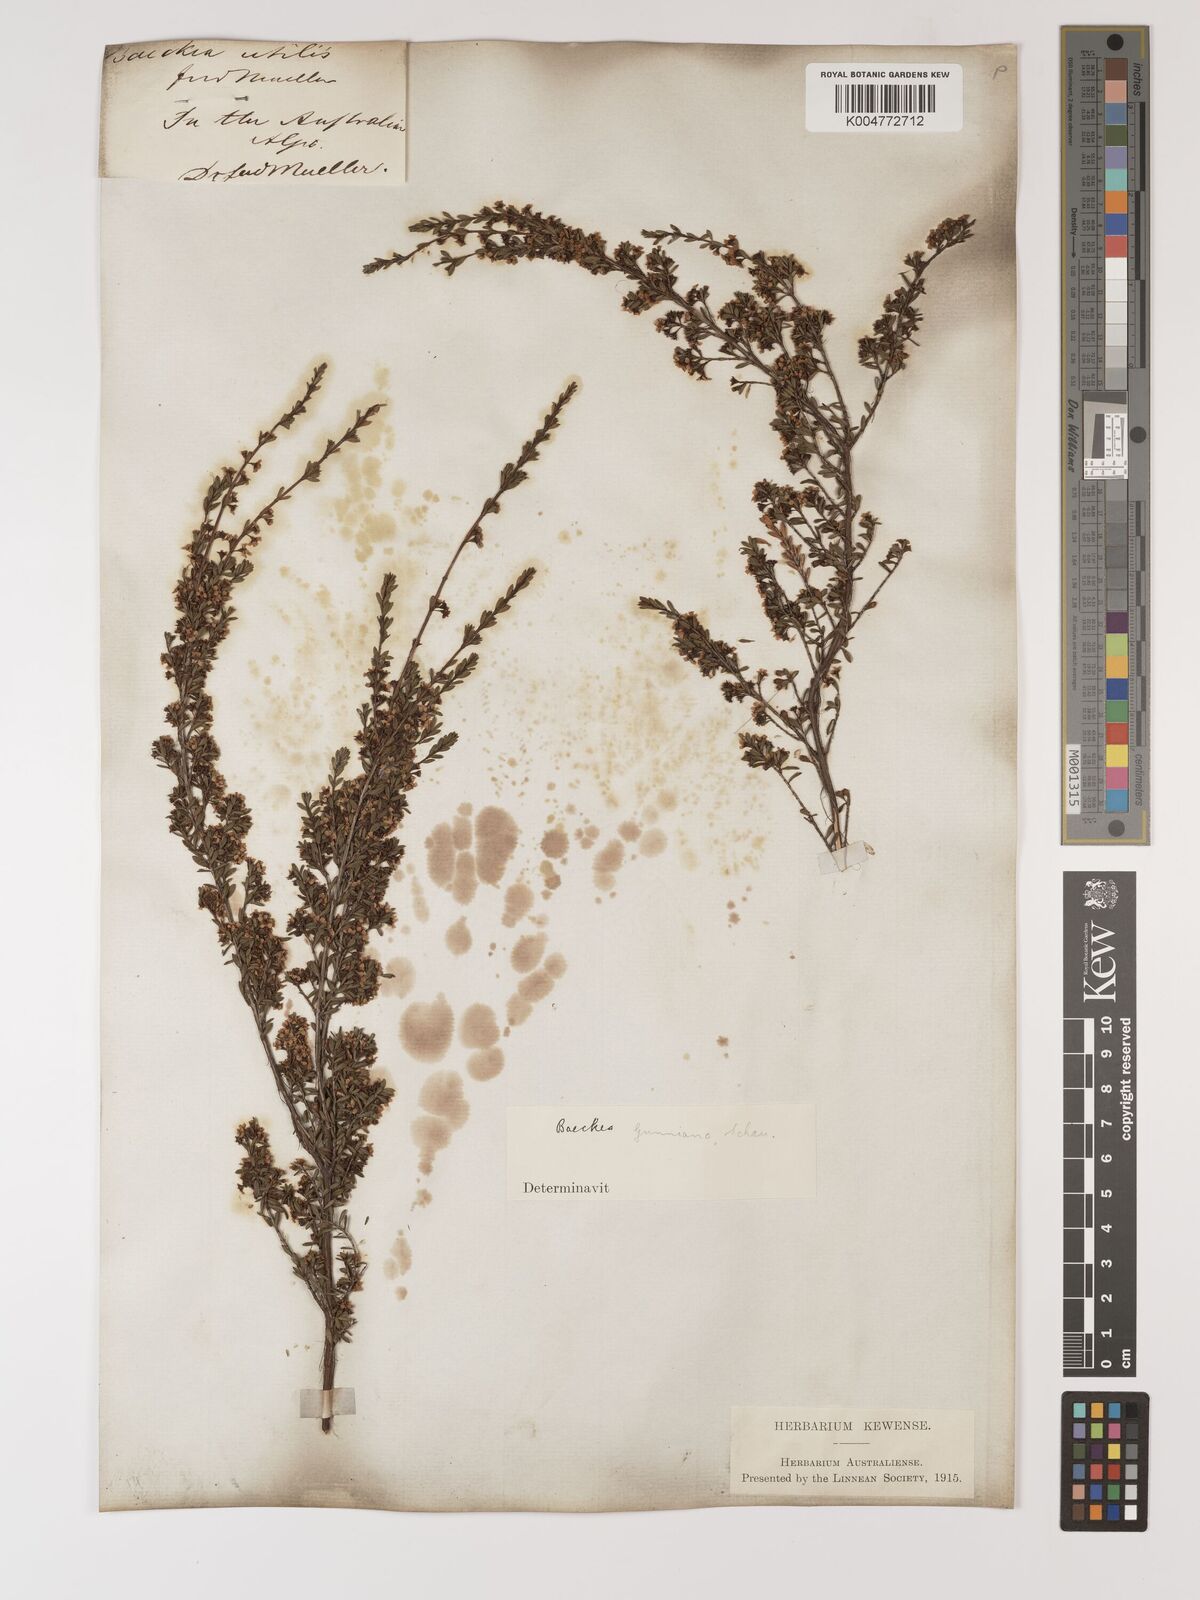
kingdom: Plantae
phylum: Tracheophyta
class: Magnoliopsida
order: Myrtales
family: Myrtaceae
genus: Baeckea
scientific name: Baeckea gunniana
